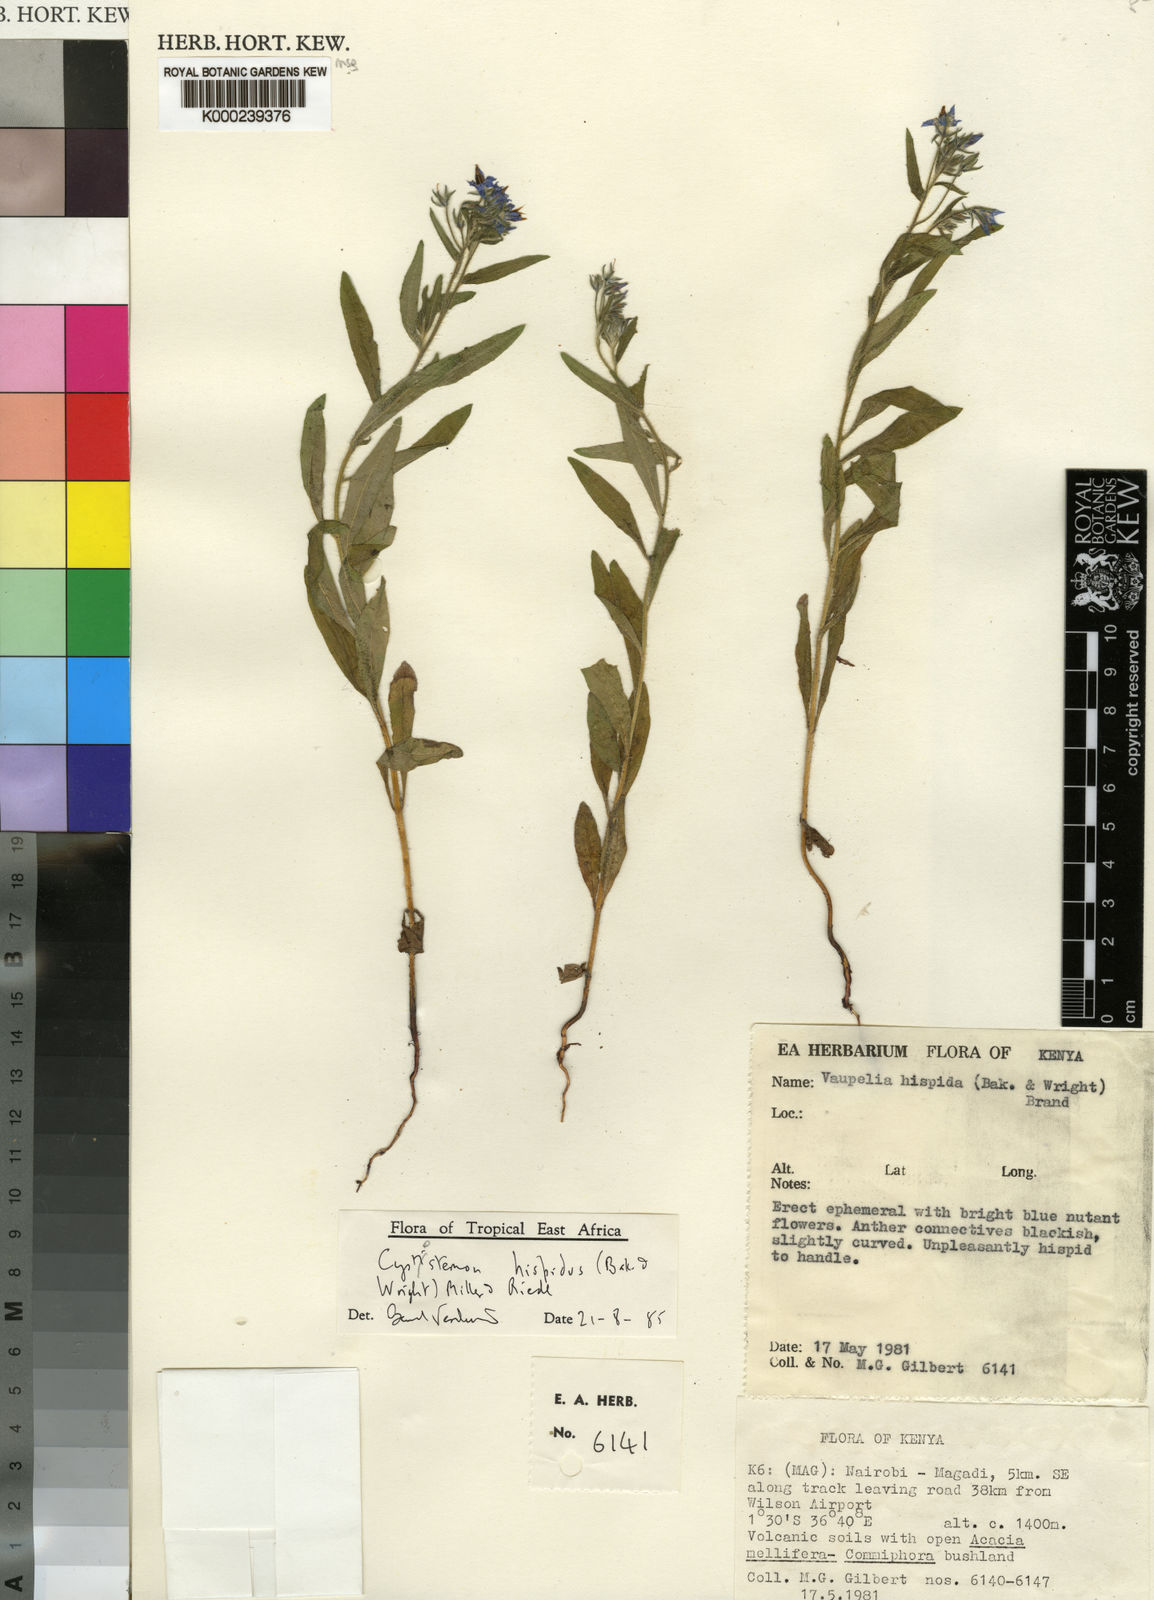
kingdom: Plantae
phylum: Tracheophyta
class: Magnoliopsida
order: Boraginales
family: Boraginaceae
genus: Cystostemon
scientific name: Cystostemon hispidus
